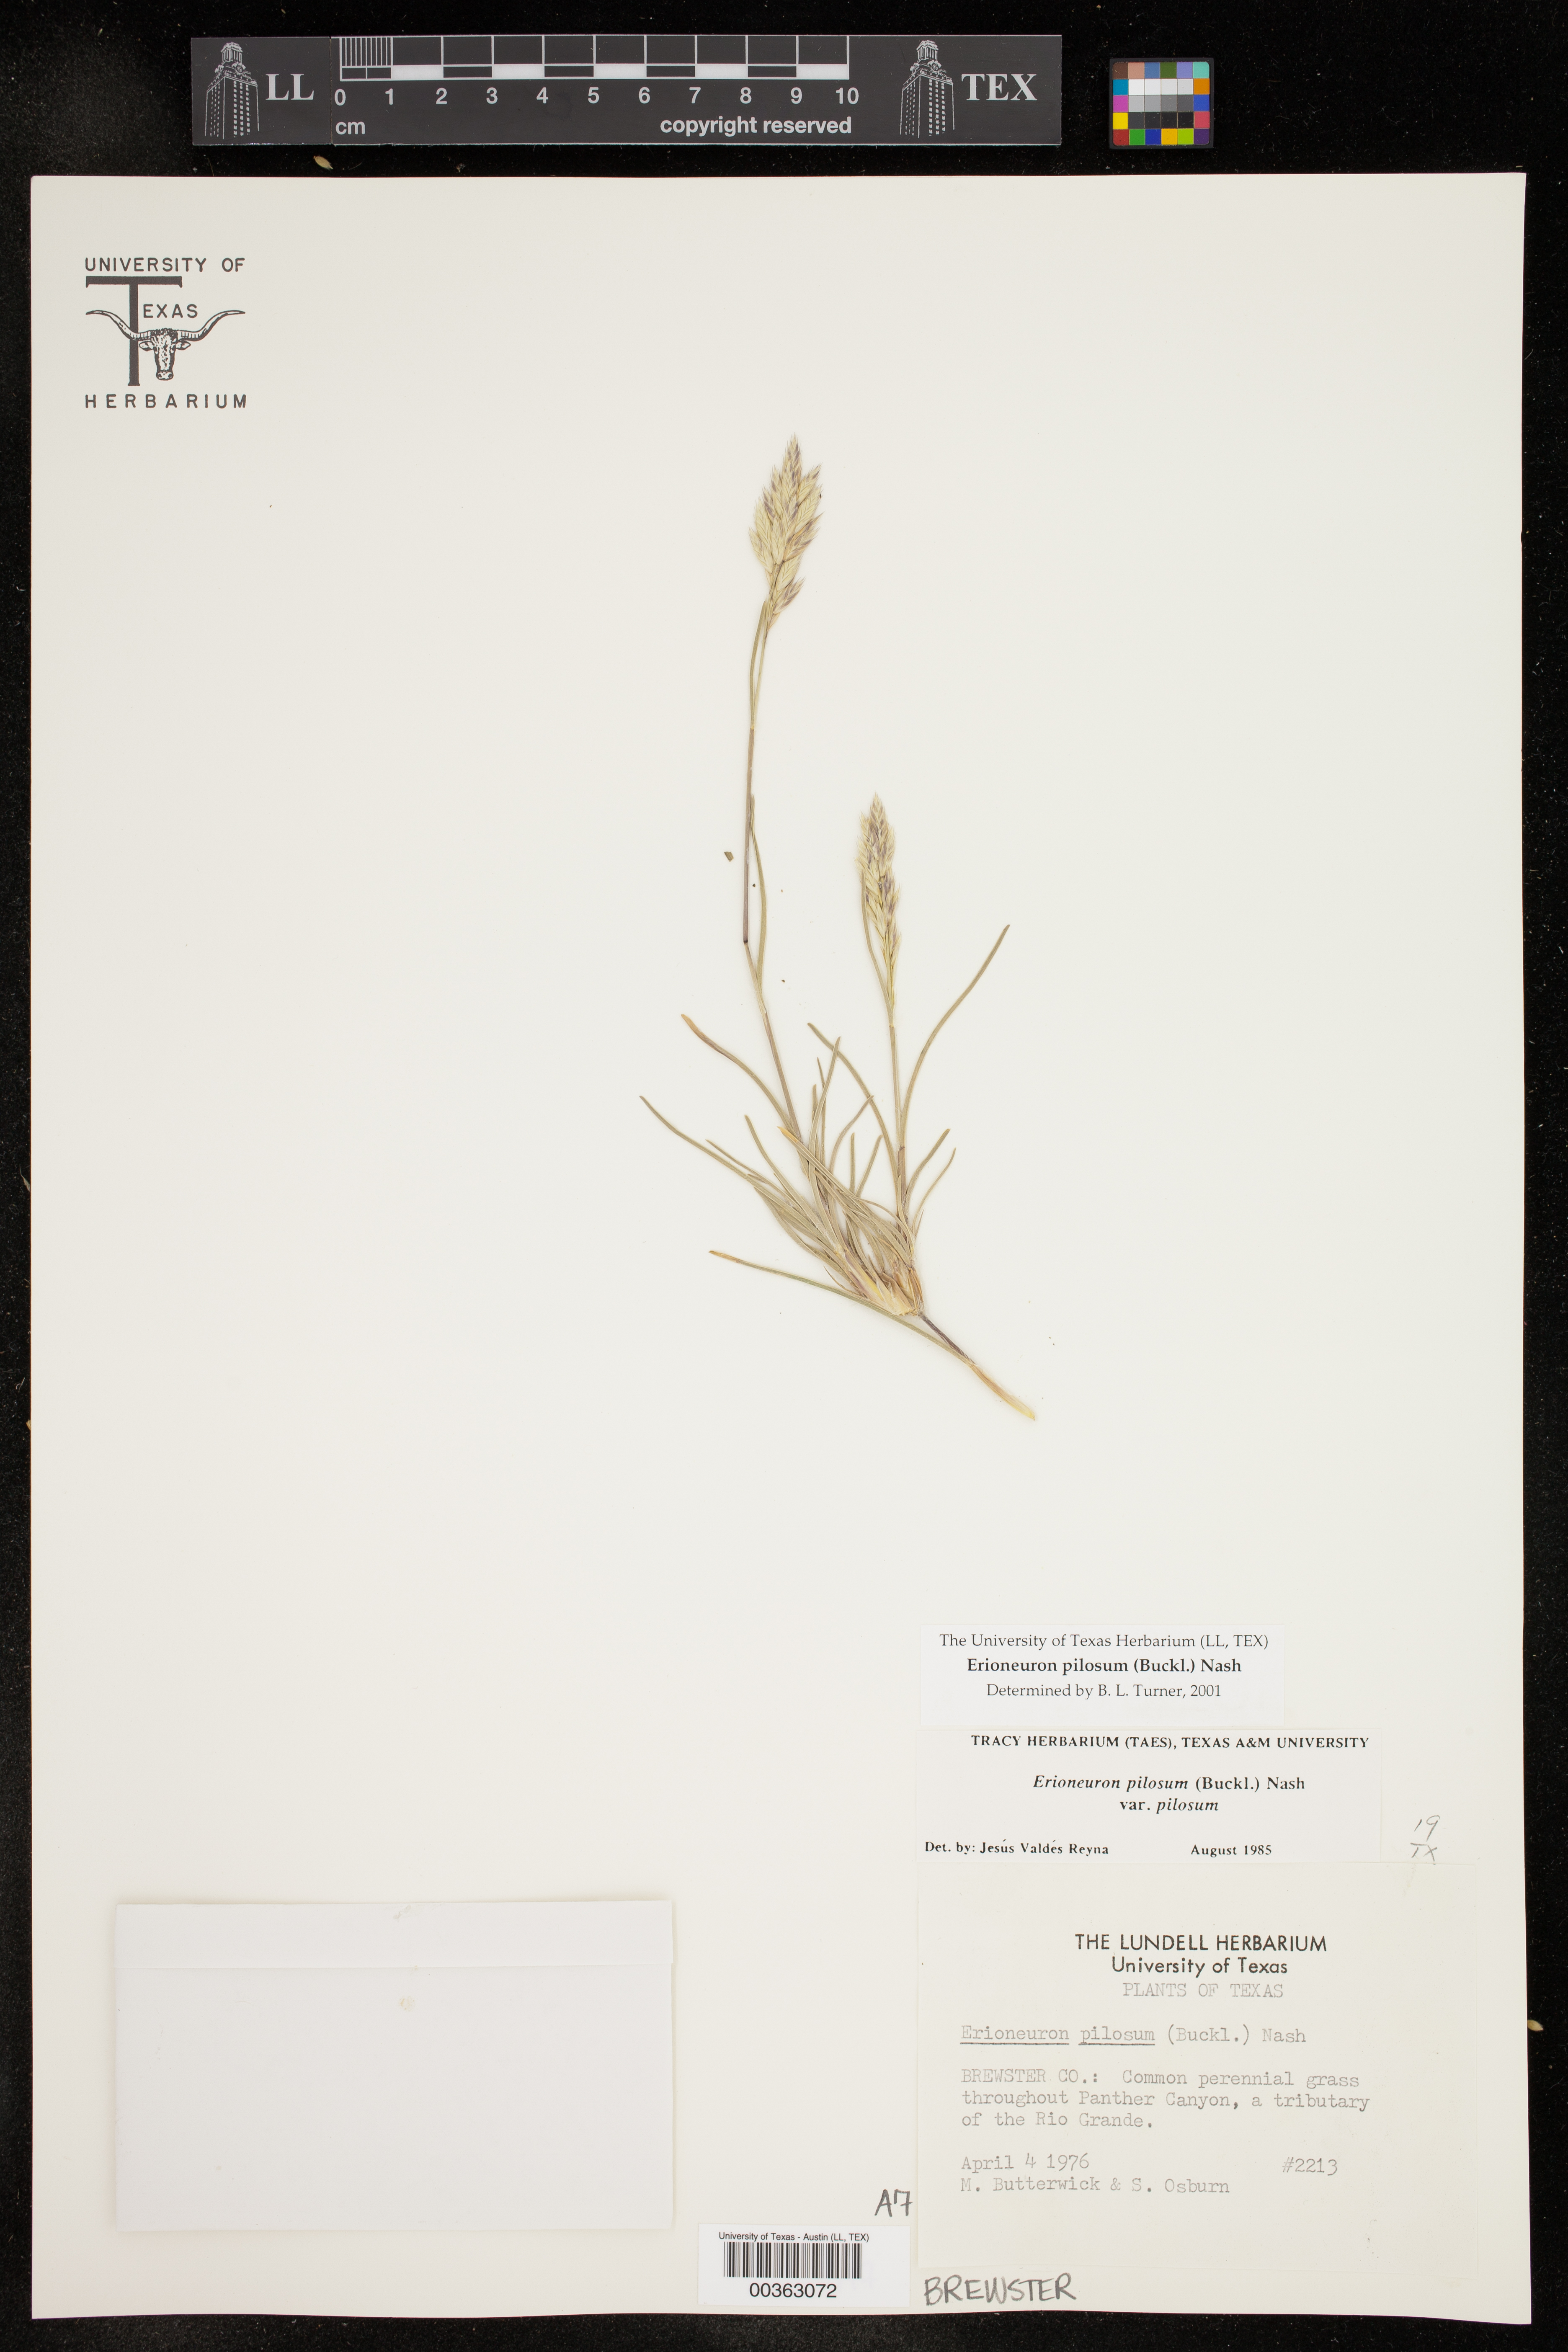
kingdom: Plantae
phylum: Tracheophyta
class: Liliopsida
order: Poales
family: Poaceae
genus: Erioneuron
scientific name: Erioneuron pilosum
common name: Hairy woolly grass
